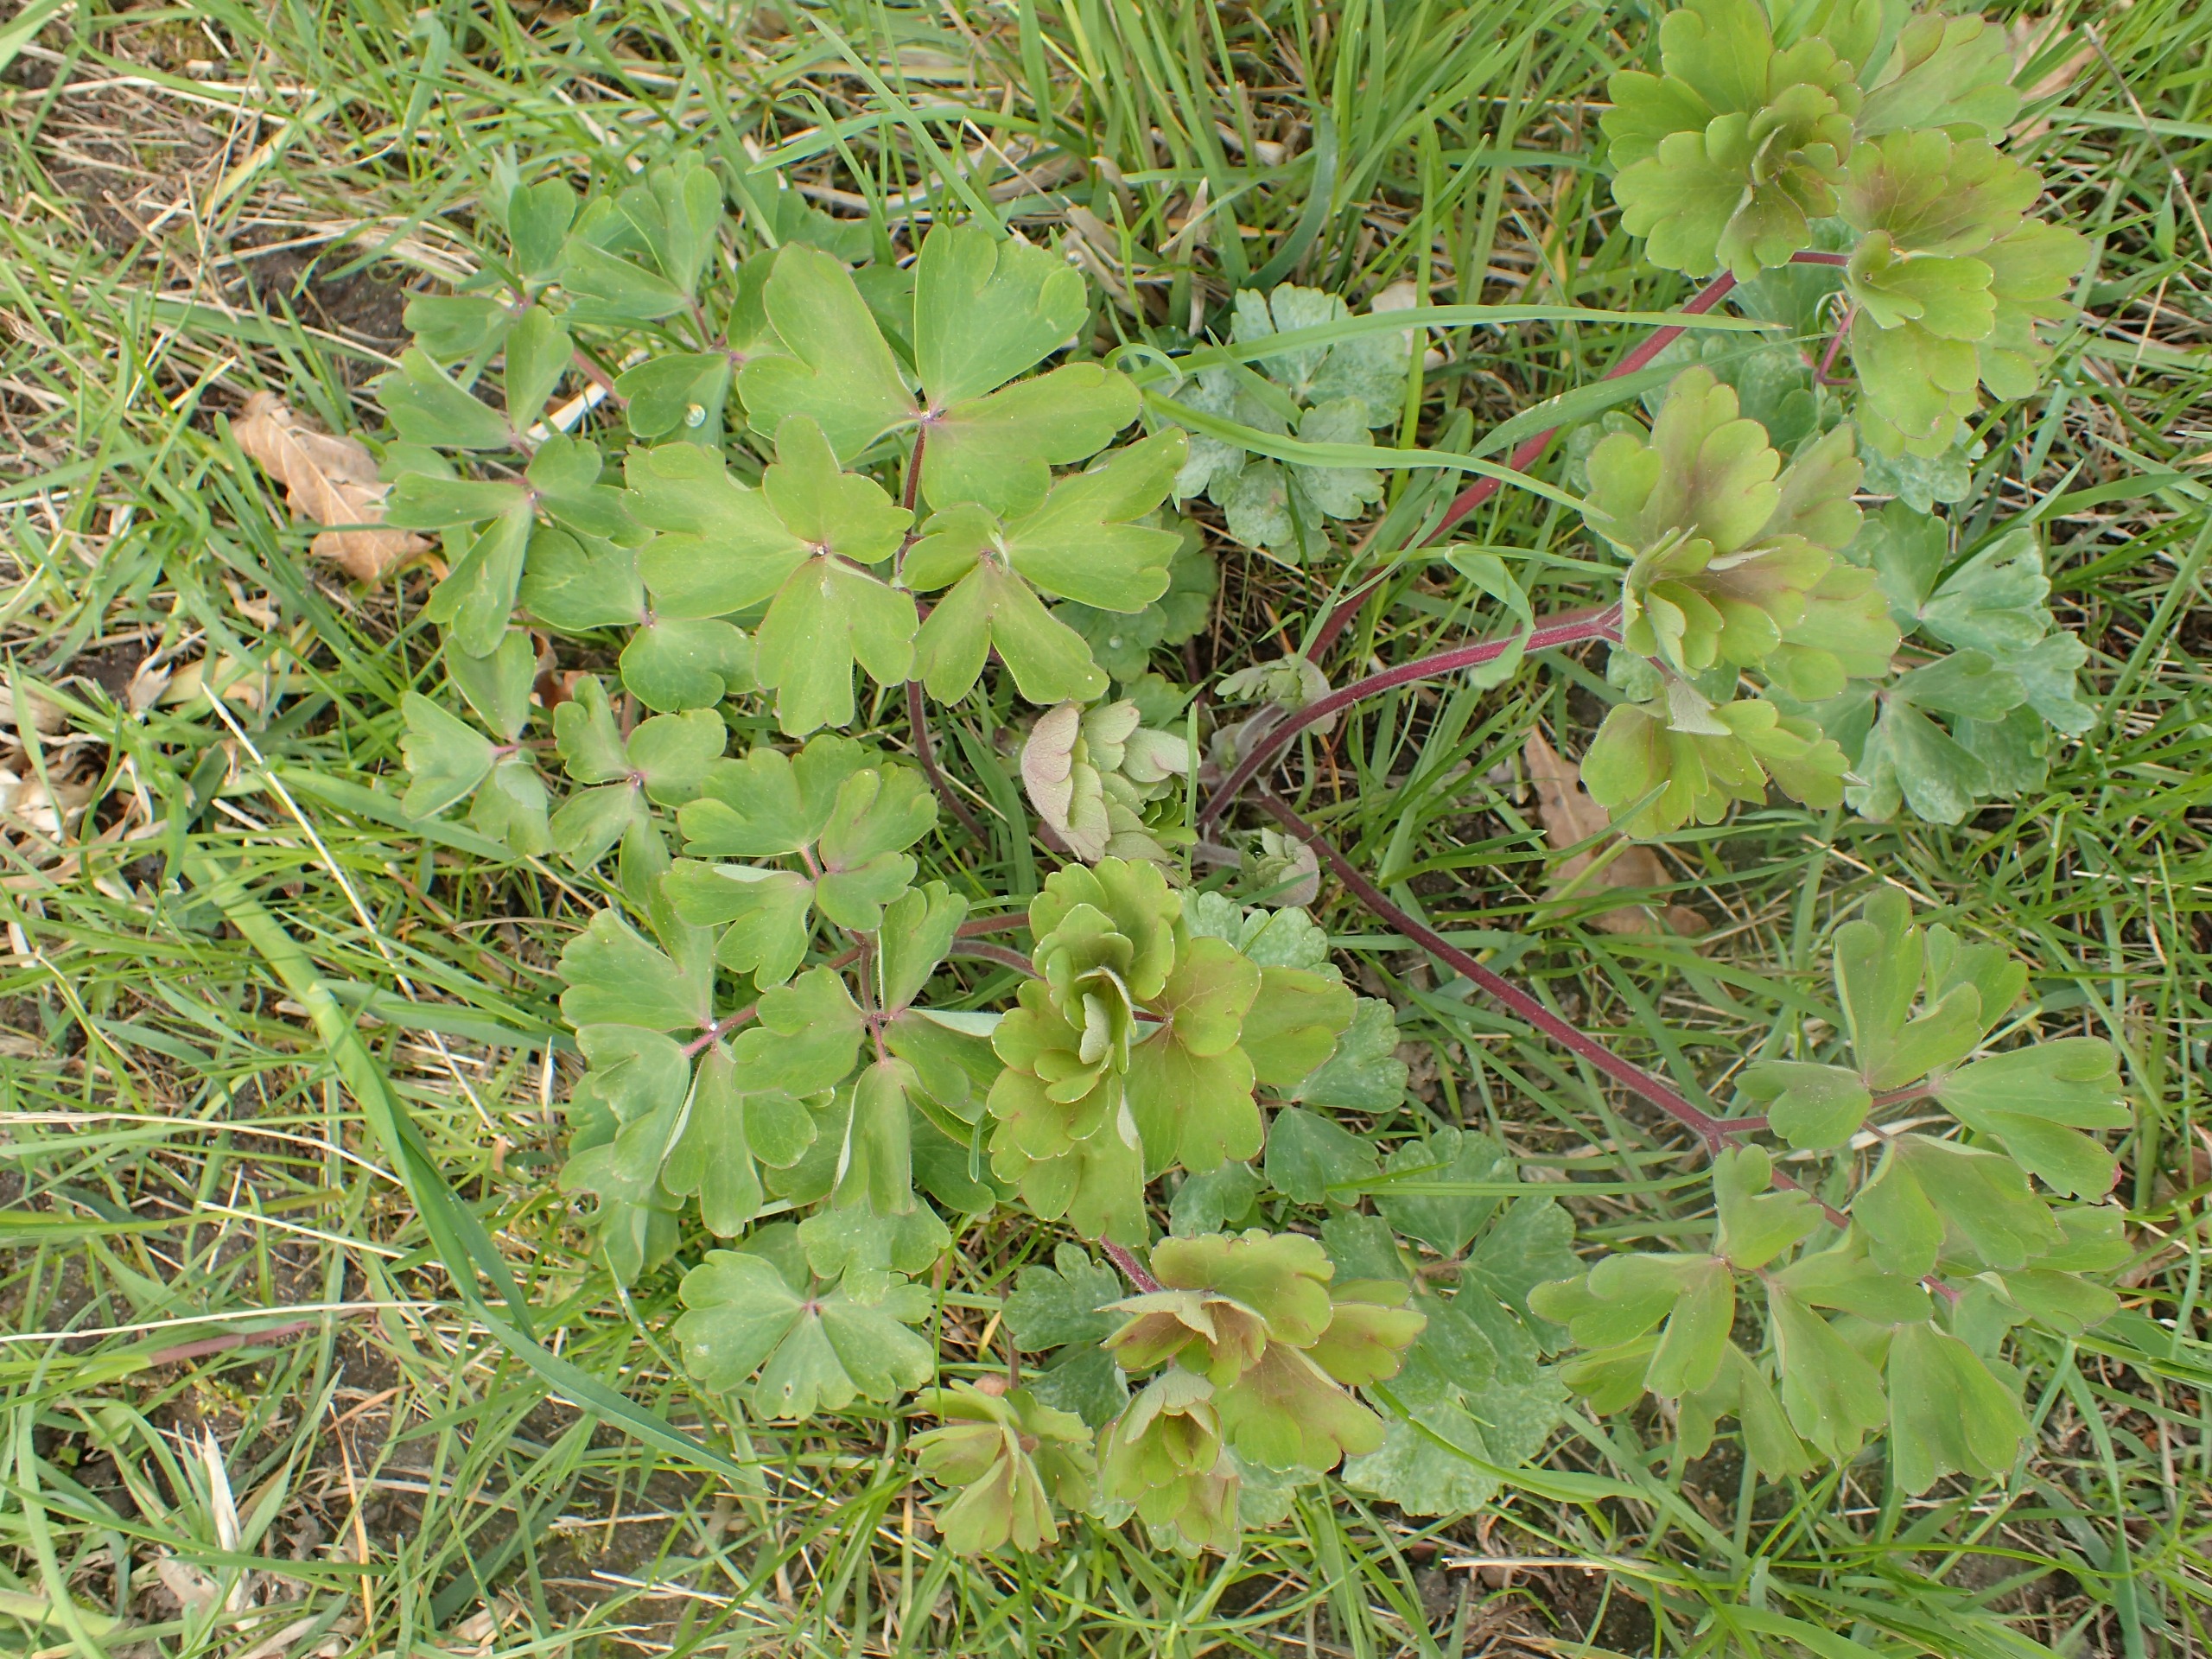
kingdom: Plantae
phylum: Tracheophyta
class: Magnoliopsida
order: Ranunculales
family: Ranunculaceae
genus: Aquilegia
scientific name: Aquilegia vulgaris
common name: Akeleje
